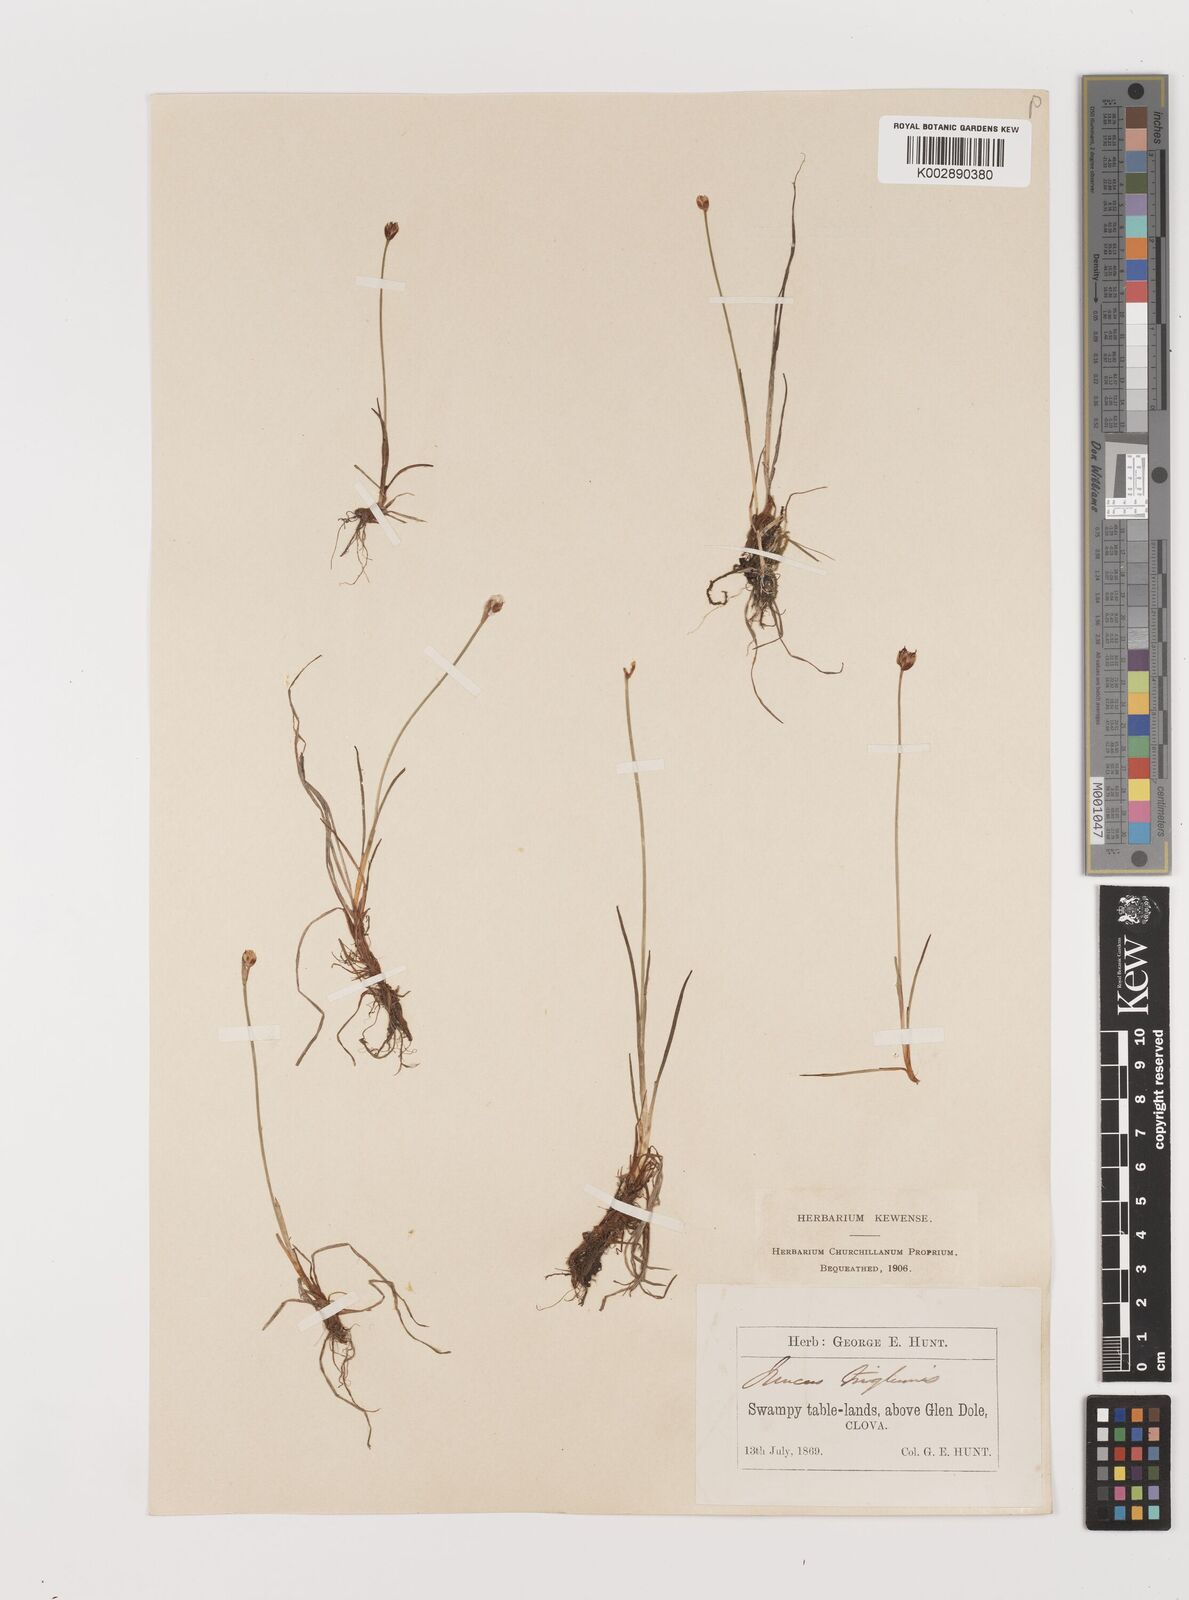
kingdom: Plantae
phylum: Tracheophyta
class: Liliopsida
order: Poales
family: Juncaceae
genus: Juncus
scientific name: Juncus triglumis
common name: Three-flowered rush
